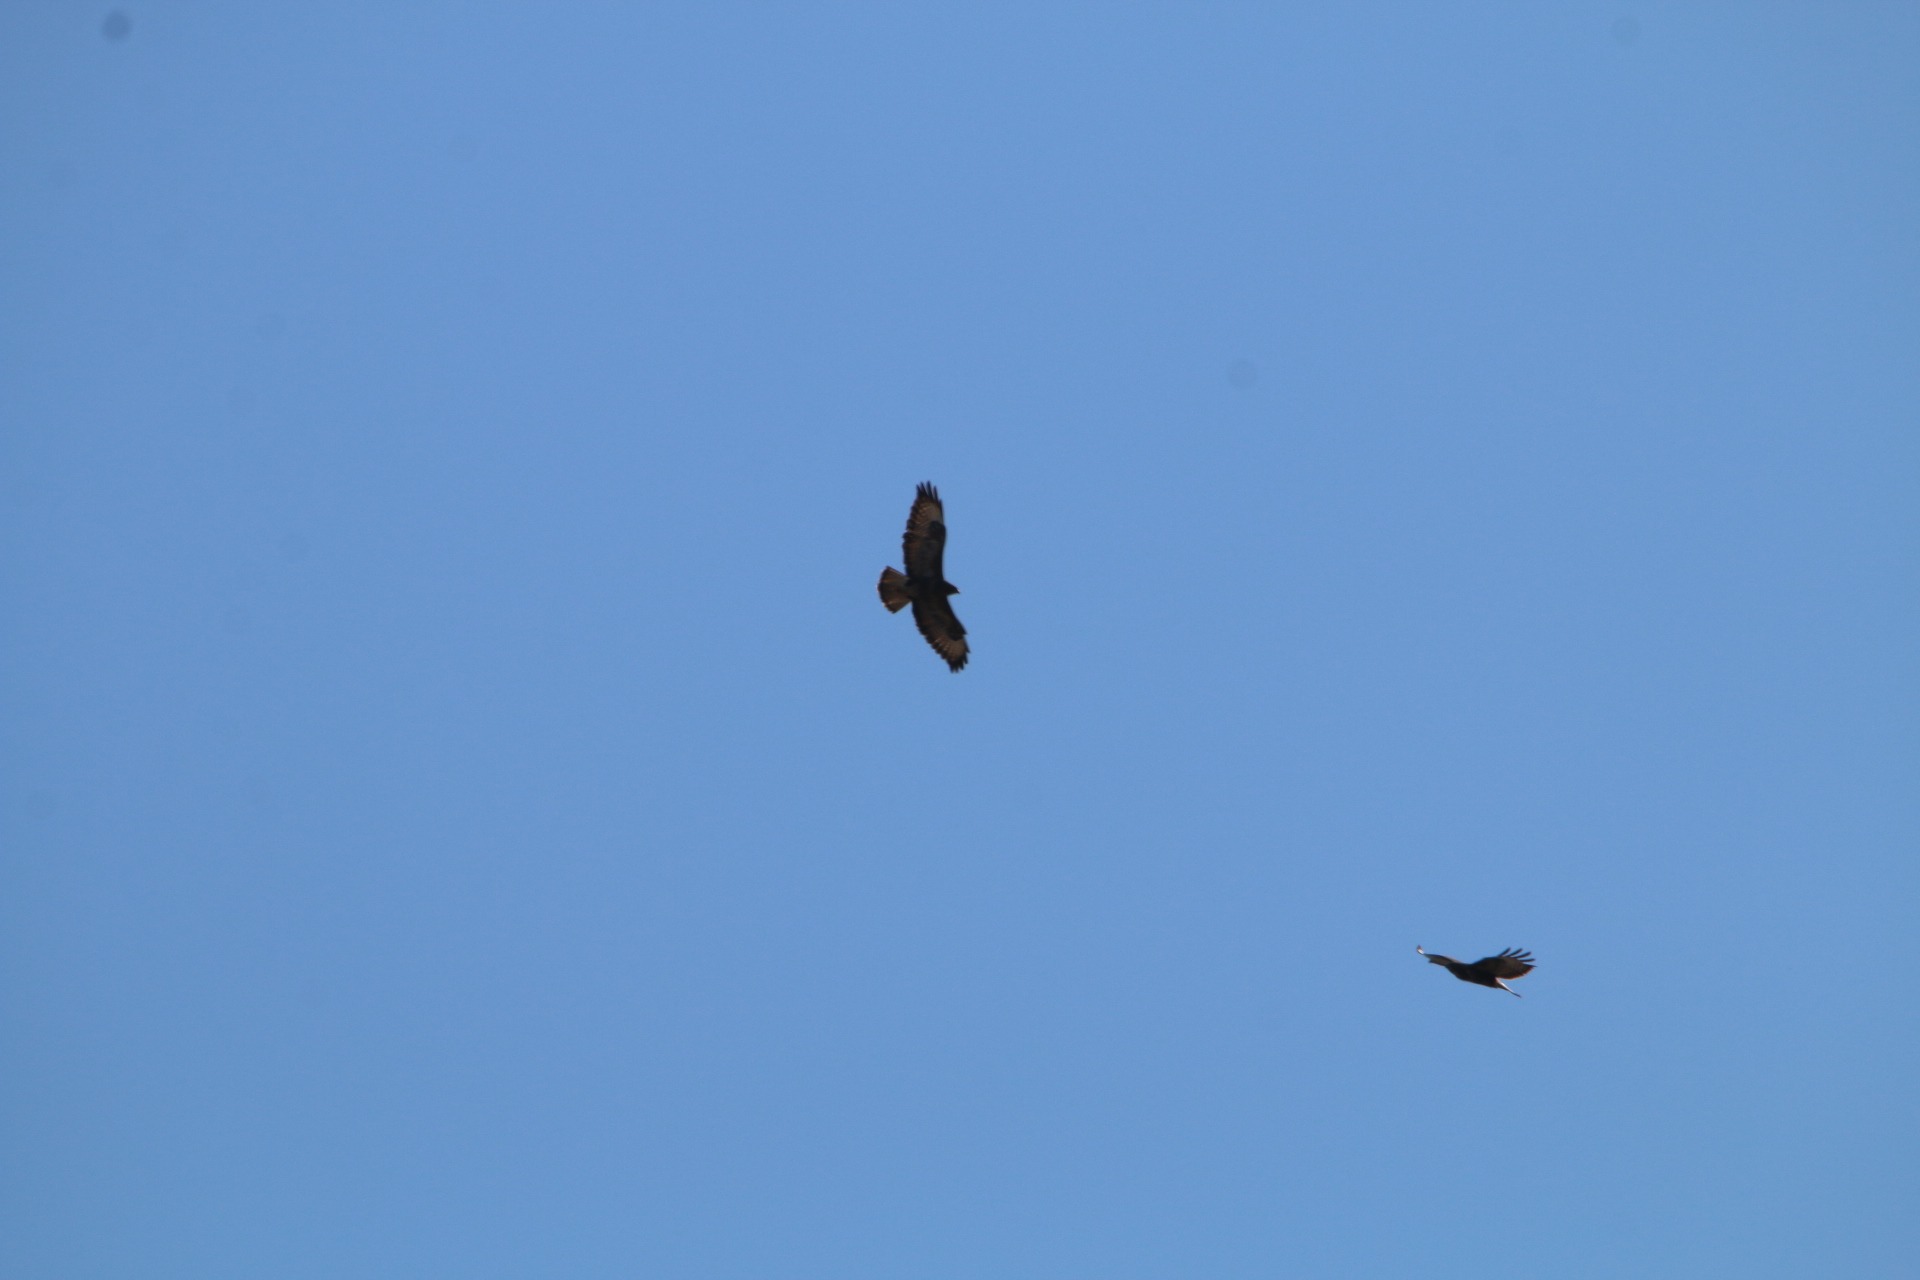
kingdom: Animalia
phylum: Chordata
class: Aves
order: Accipitriformes
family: Accipitridae
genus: Buteo
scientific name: Buteo buteo
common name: Musvåge
